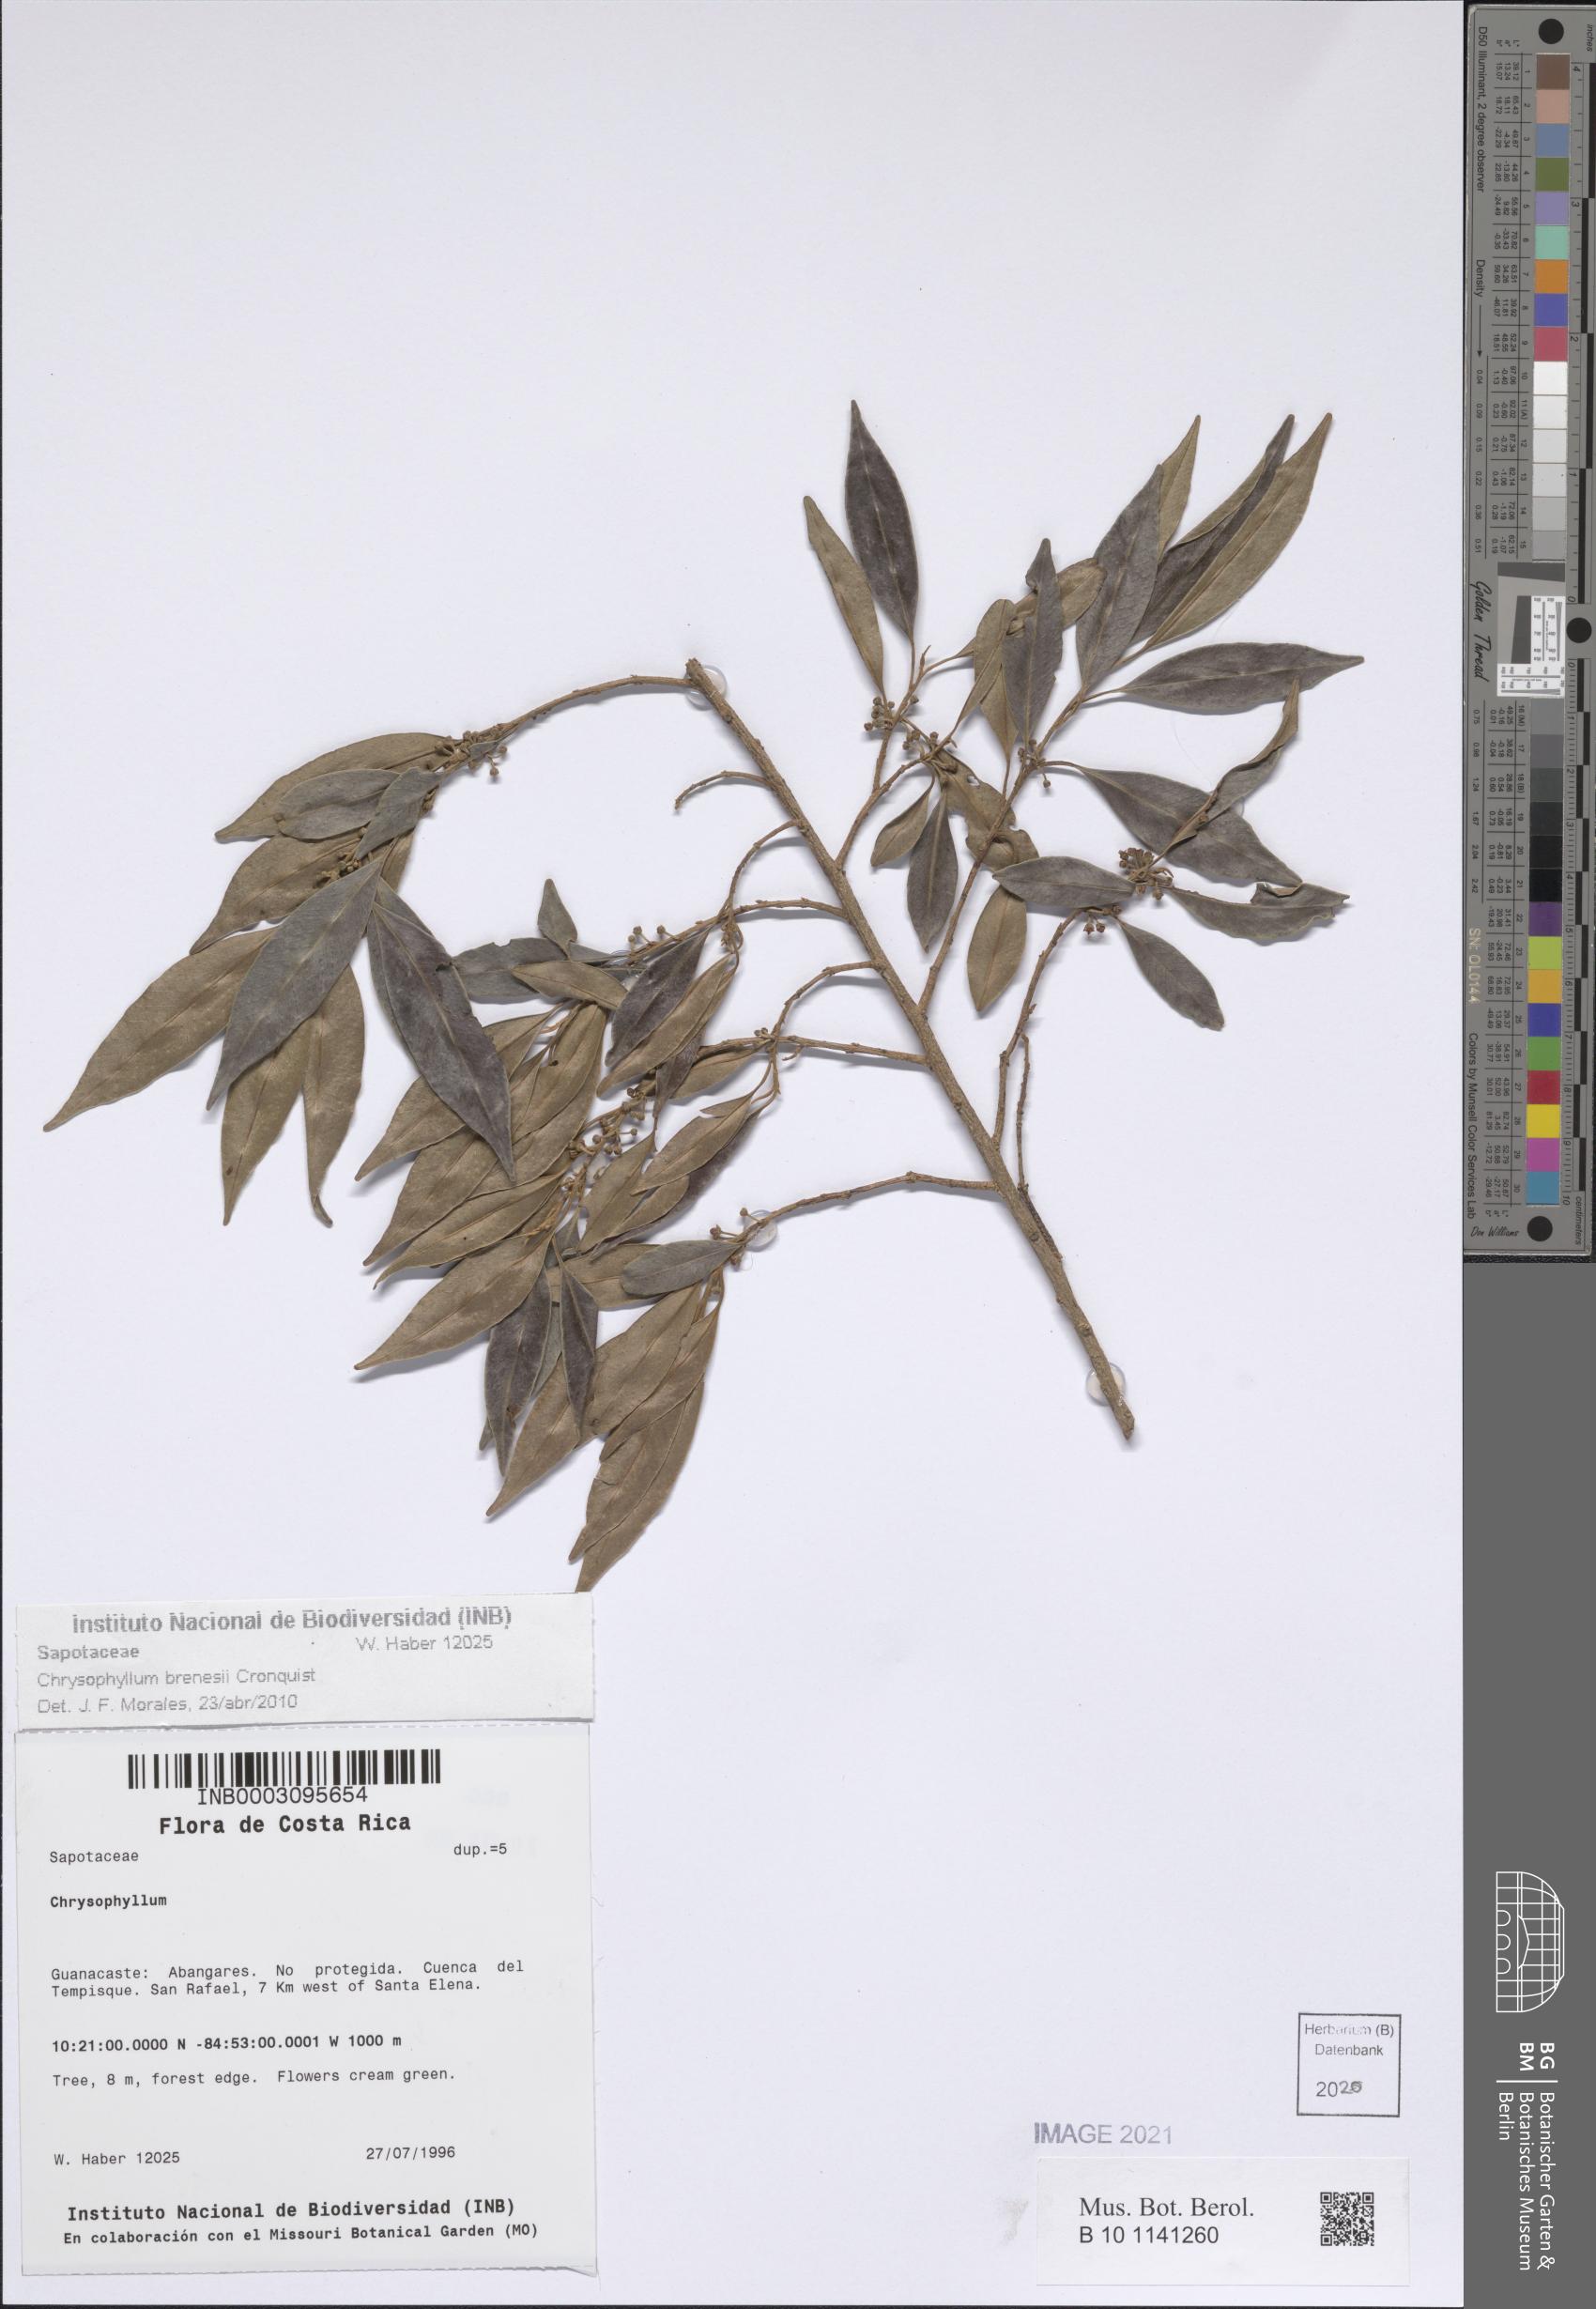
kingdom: Plantae
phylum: Tracheophyta
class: Magnoliopsida
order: Ericales
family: Sapotaceae
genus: Chrysophyllum
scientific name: Chrysophyllum brenesii
